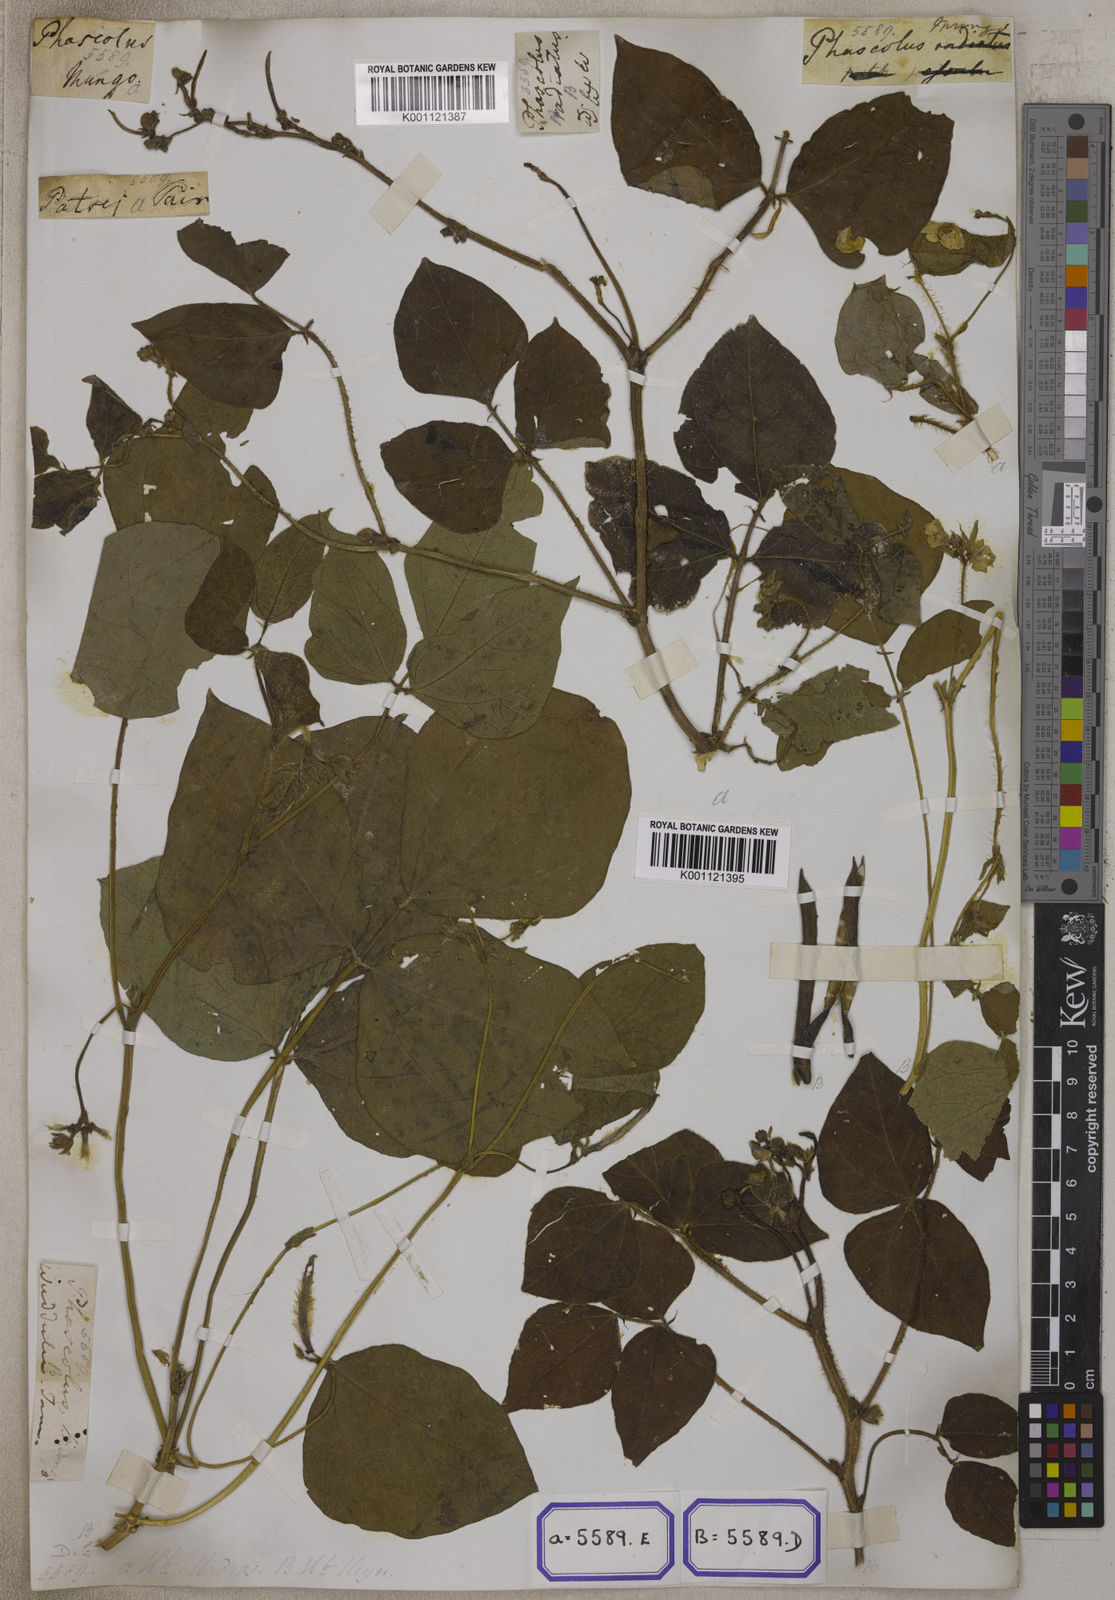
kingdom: Plantae
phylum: Tracheophyta
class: Magnoliopsida
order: Fabales
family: Fabaceae
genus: Phaseolus
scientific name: Phaseolus
